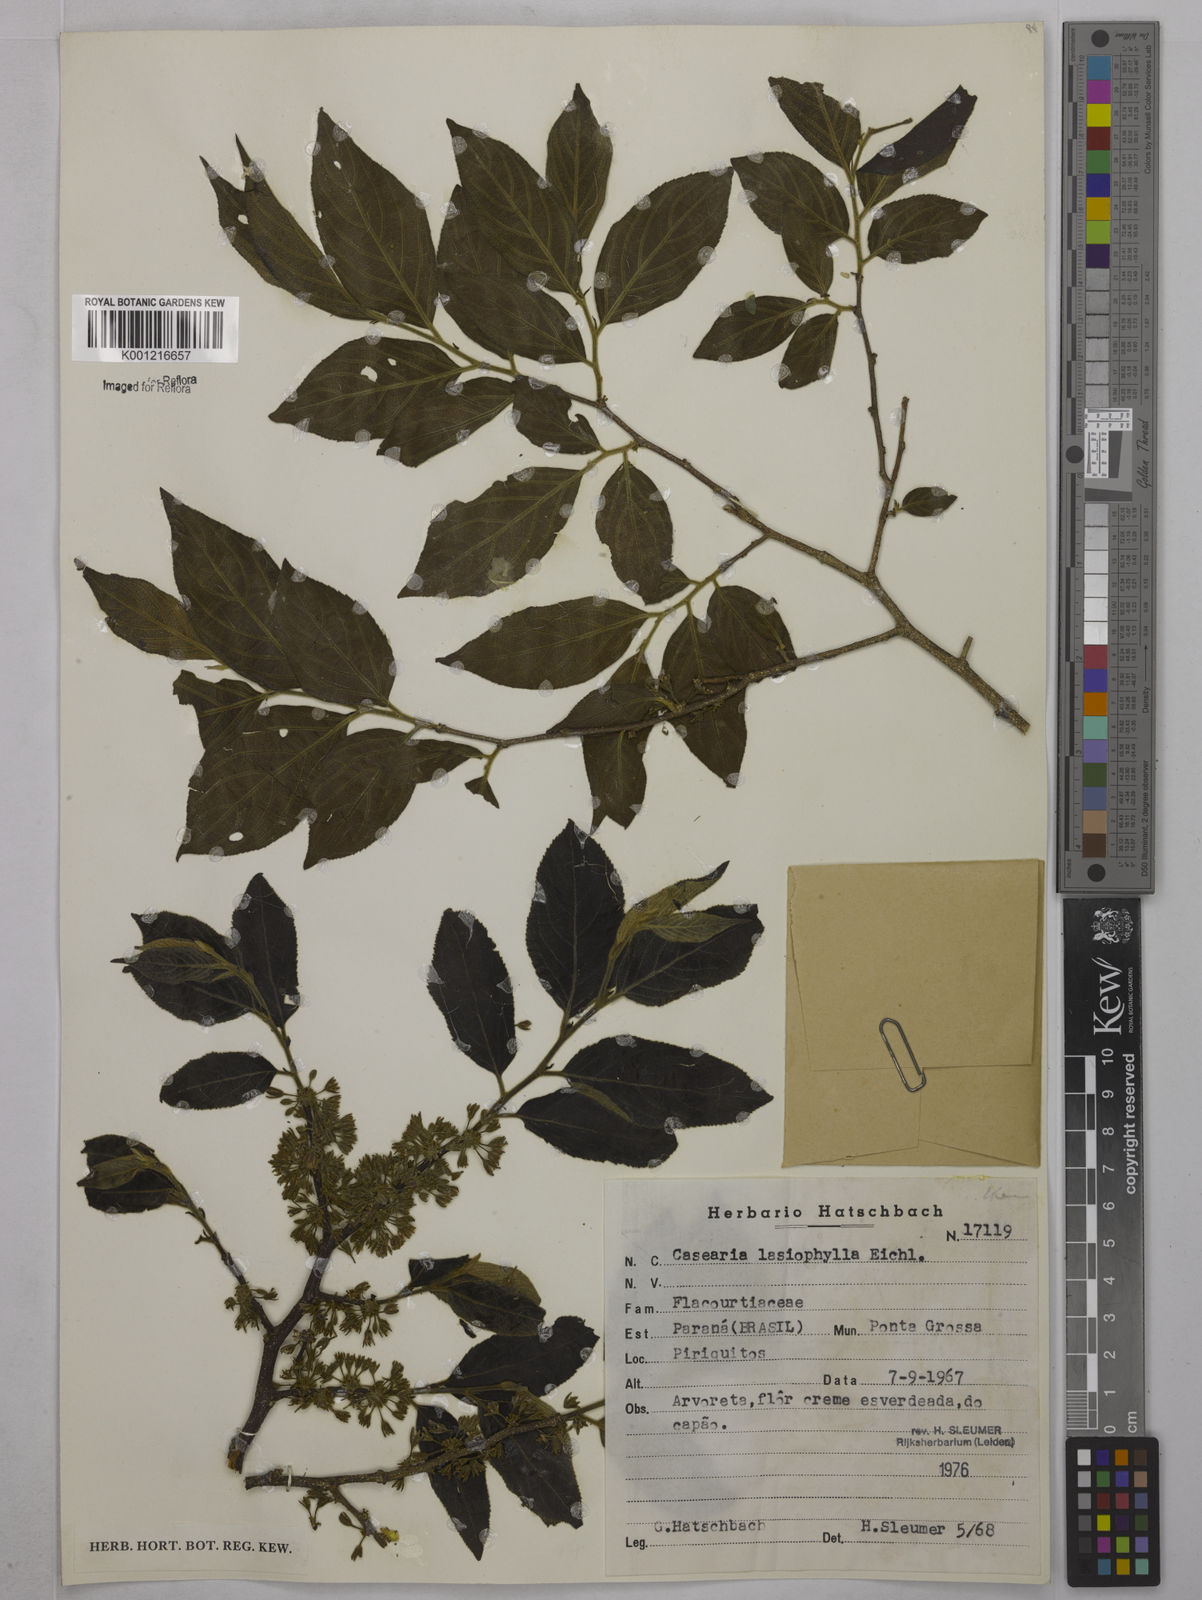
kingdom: Plantae
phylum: Tracheophyta
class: Magnoliopsida
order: Malpighiales
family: Salicaceae
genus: Casearia
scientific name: Casearia lasiophylla
